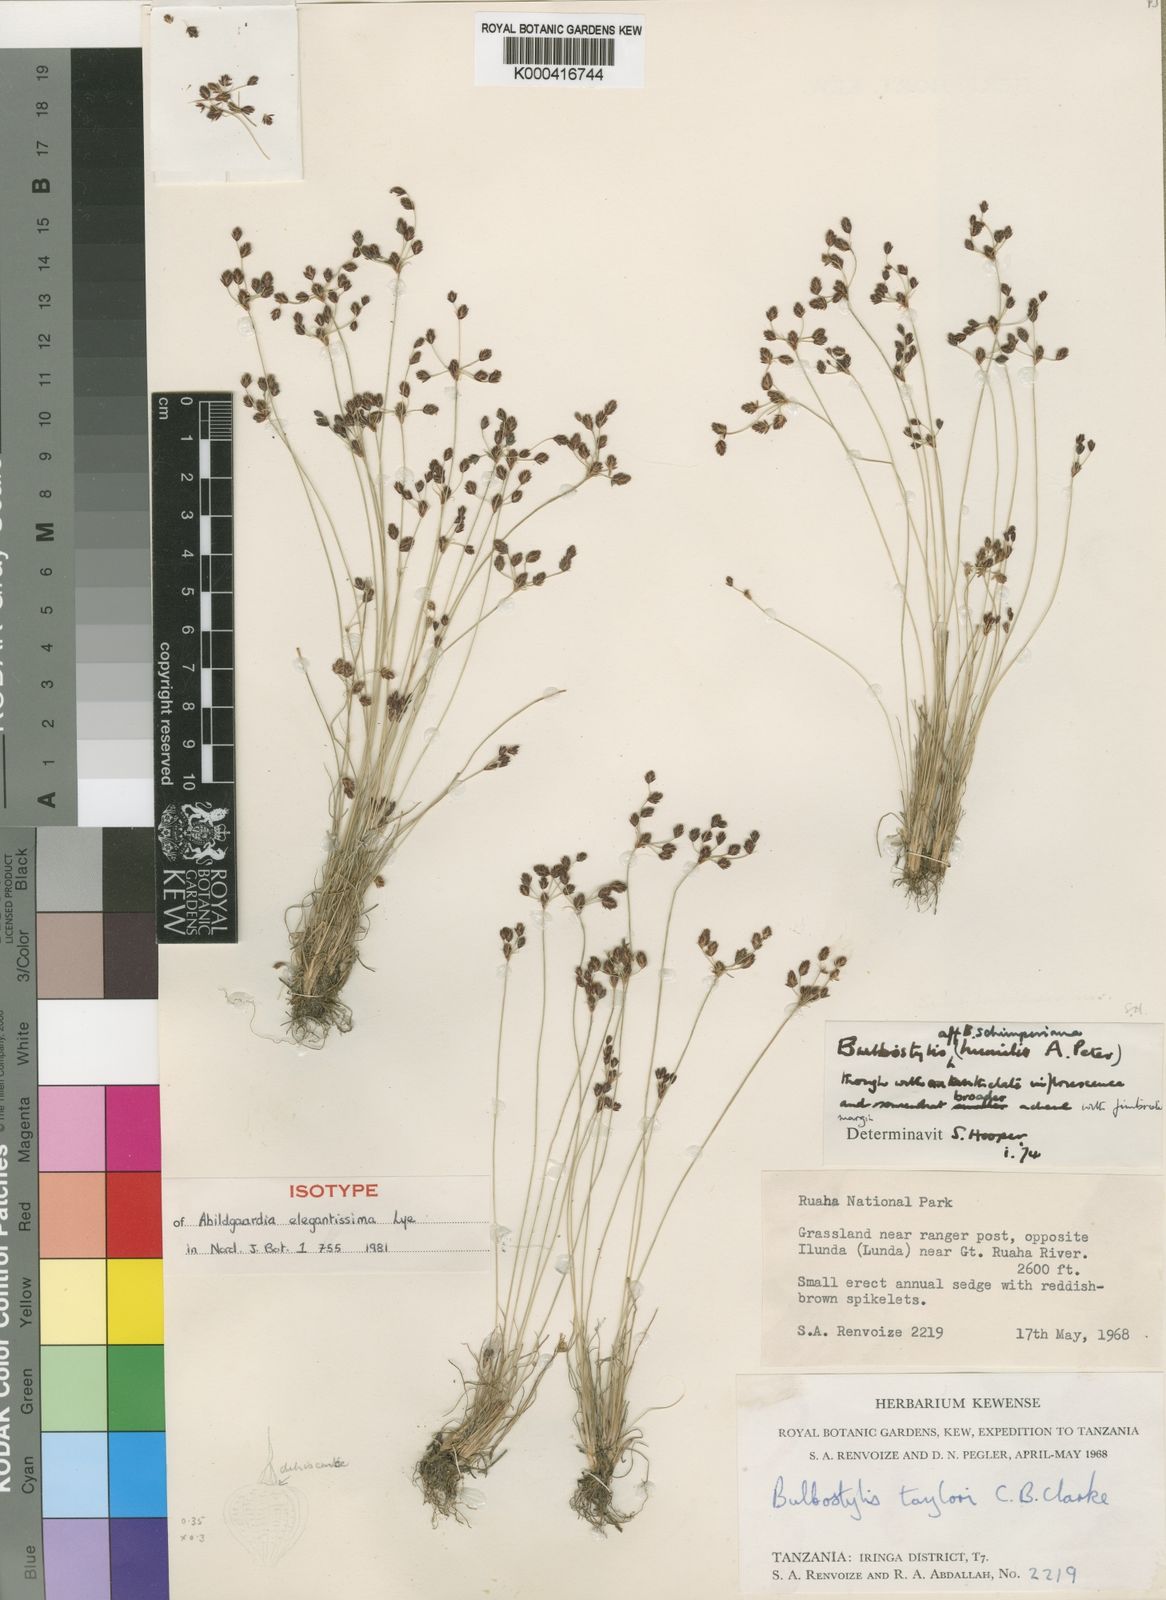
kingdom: Plantae
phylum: Tracheophyta
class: Liliopsida
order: Poales
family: Cyperaceae
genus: Bulbostylis
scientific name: Bulbostylis elegantissima
